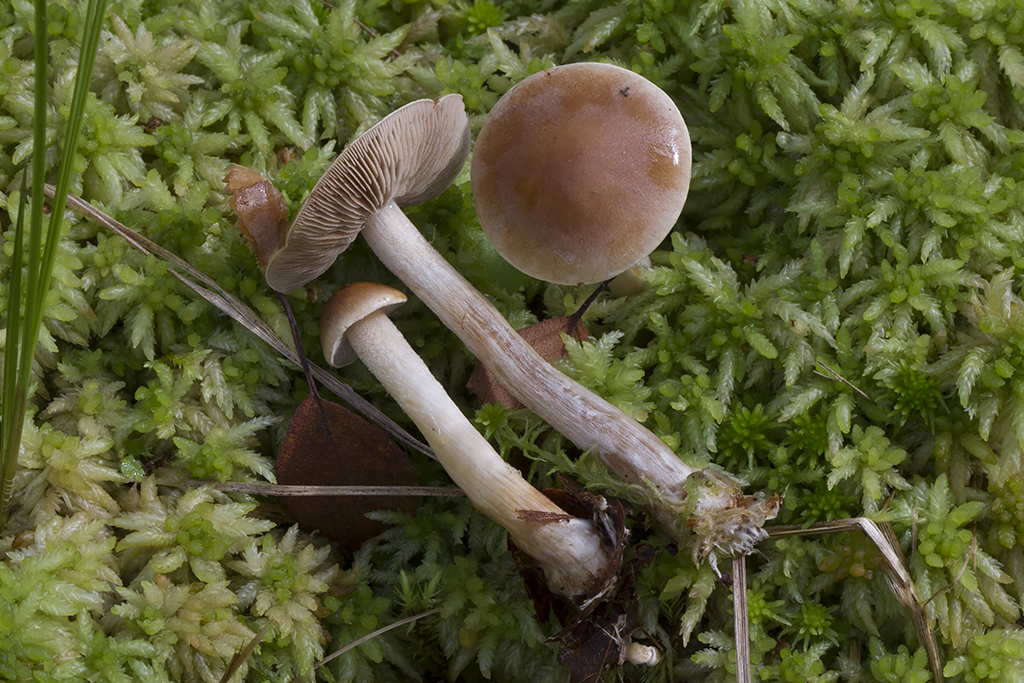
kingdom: Fungi
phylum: Basidiomycota
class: Agaricomycetes
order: Agaricales
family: Hymenogastraceae
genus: Hebeloma
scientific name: Hebeloma leucosarx
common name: Birch poisonpie
